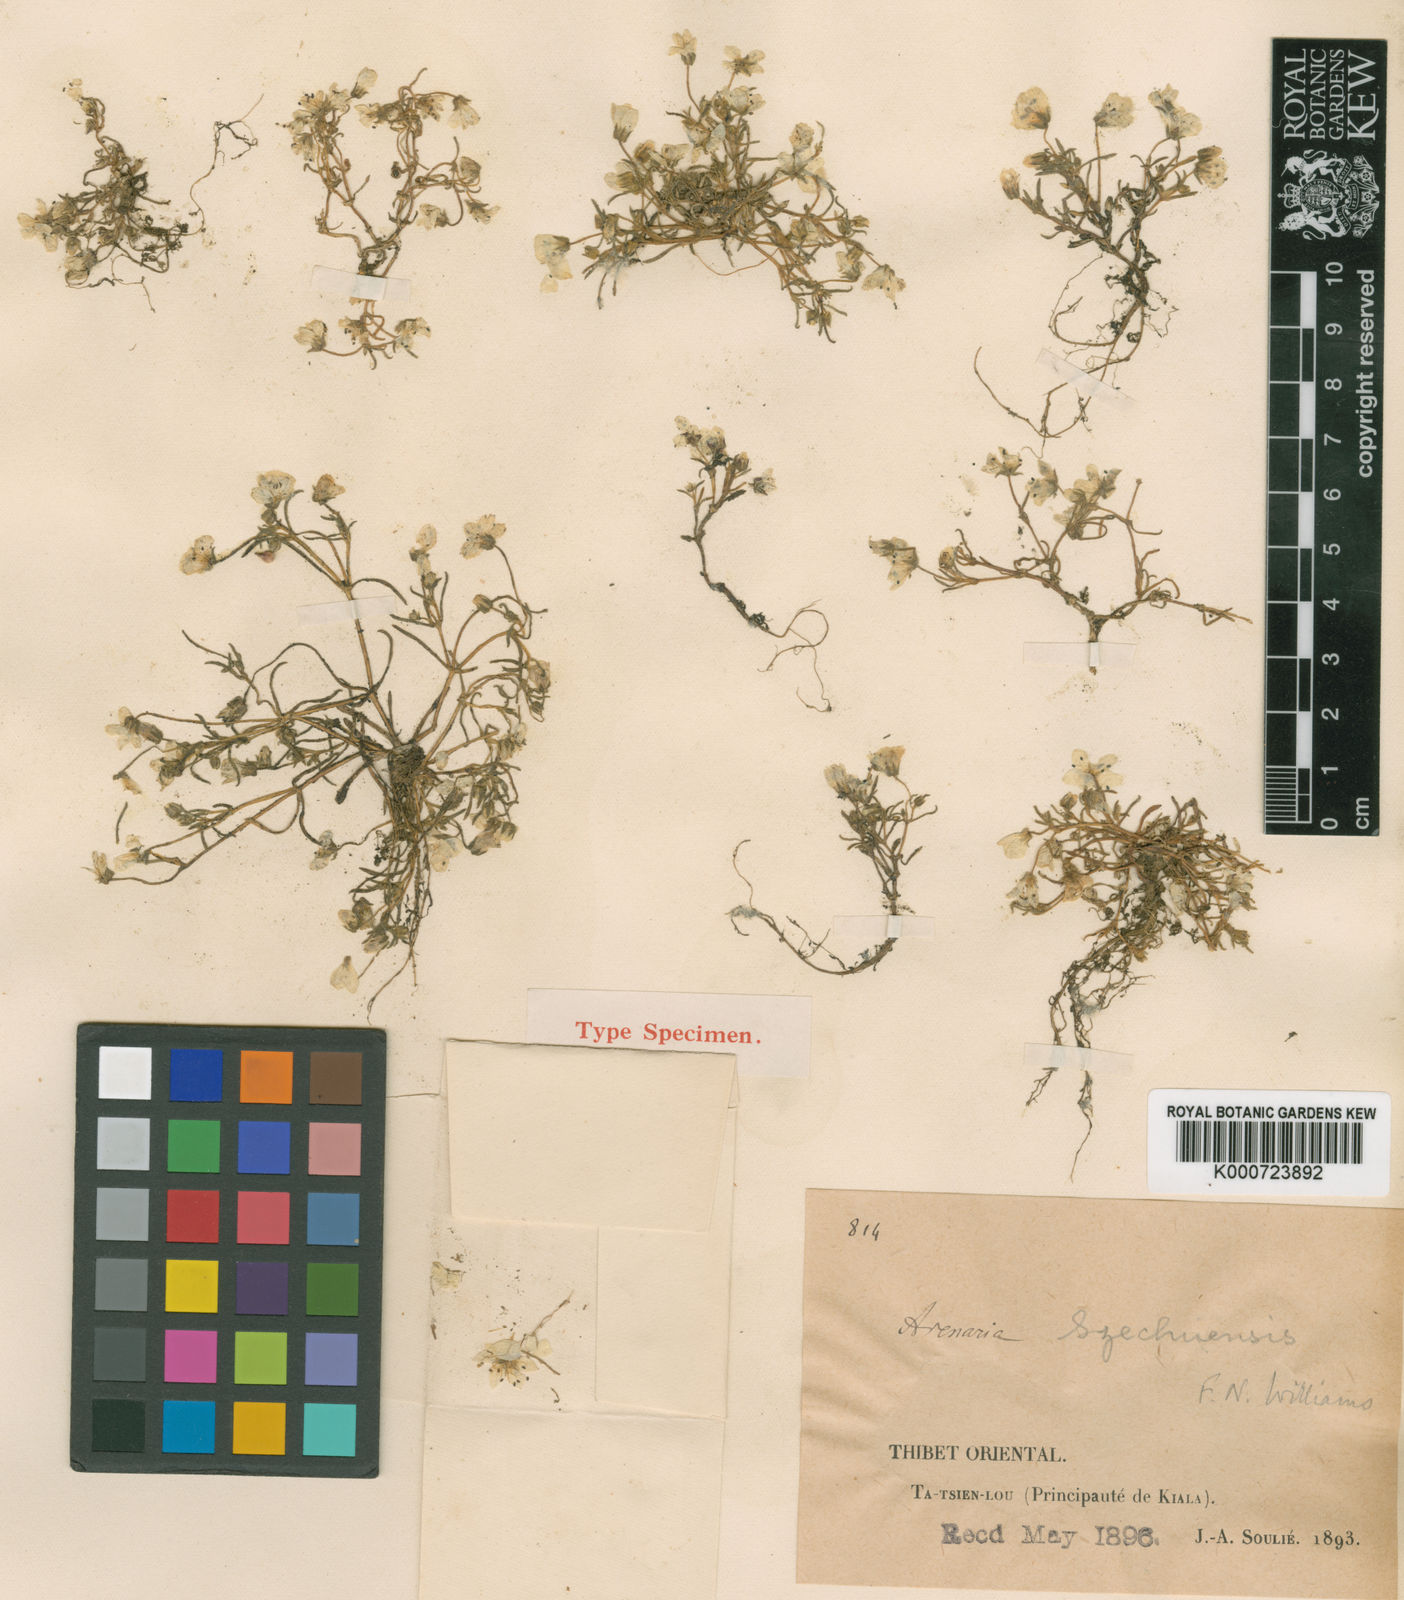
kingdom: Plantae
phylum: Tracheophyta
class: Magnoliopsida
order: Caryophyllales
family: Caryophyllaceae
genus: Odontostemma
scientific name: Odontostemma szechuense
